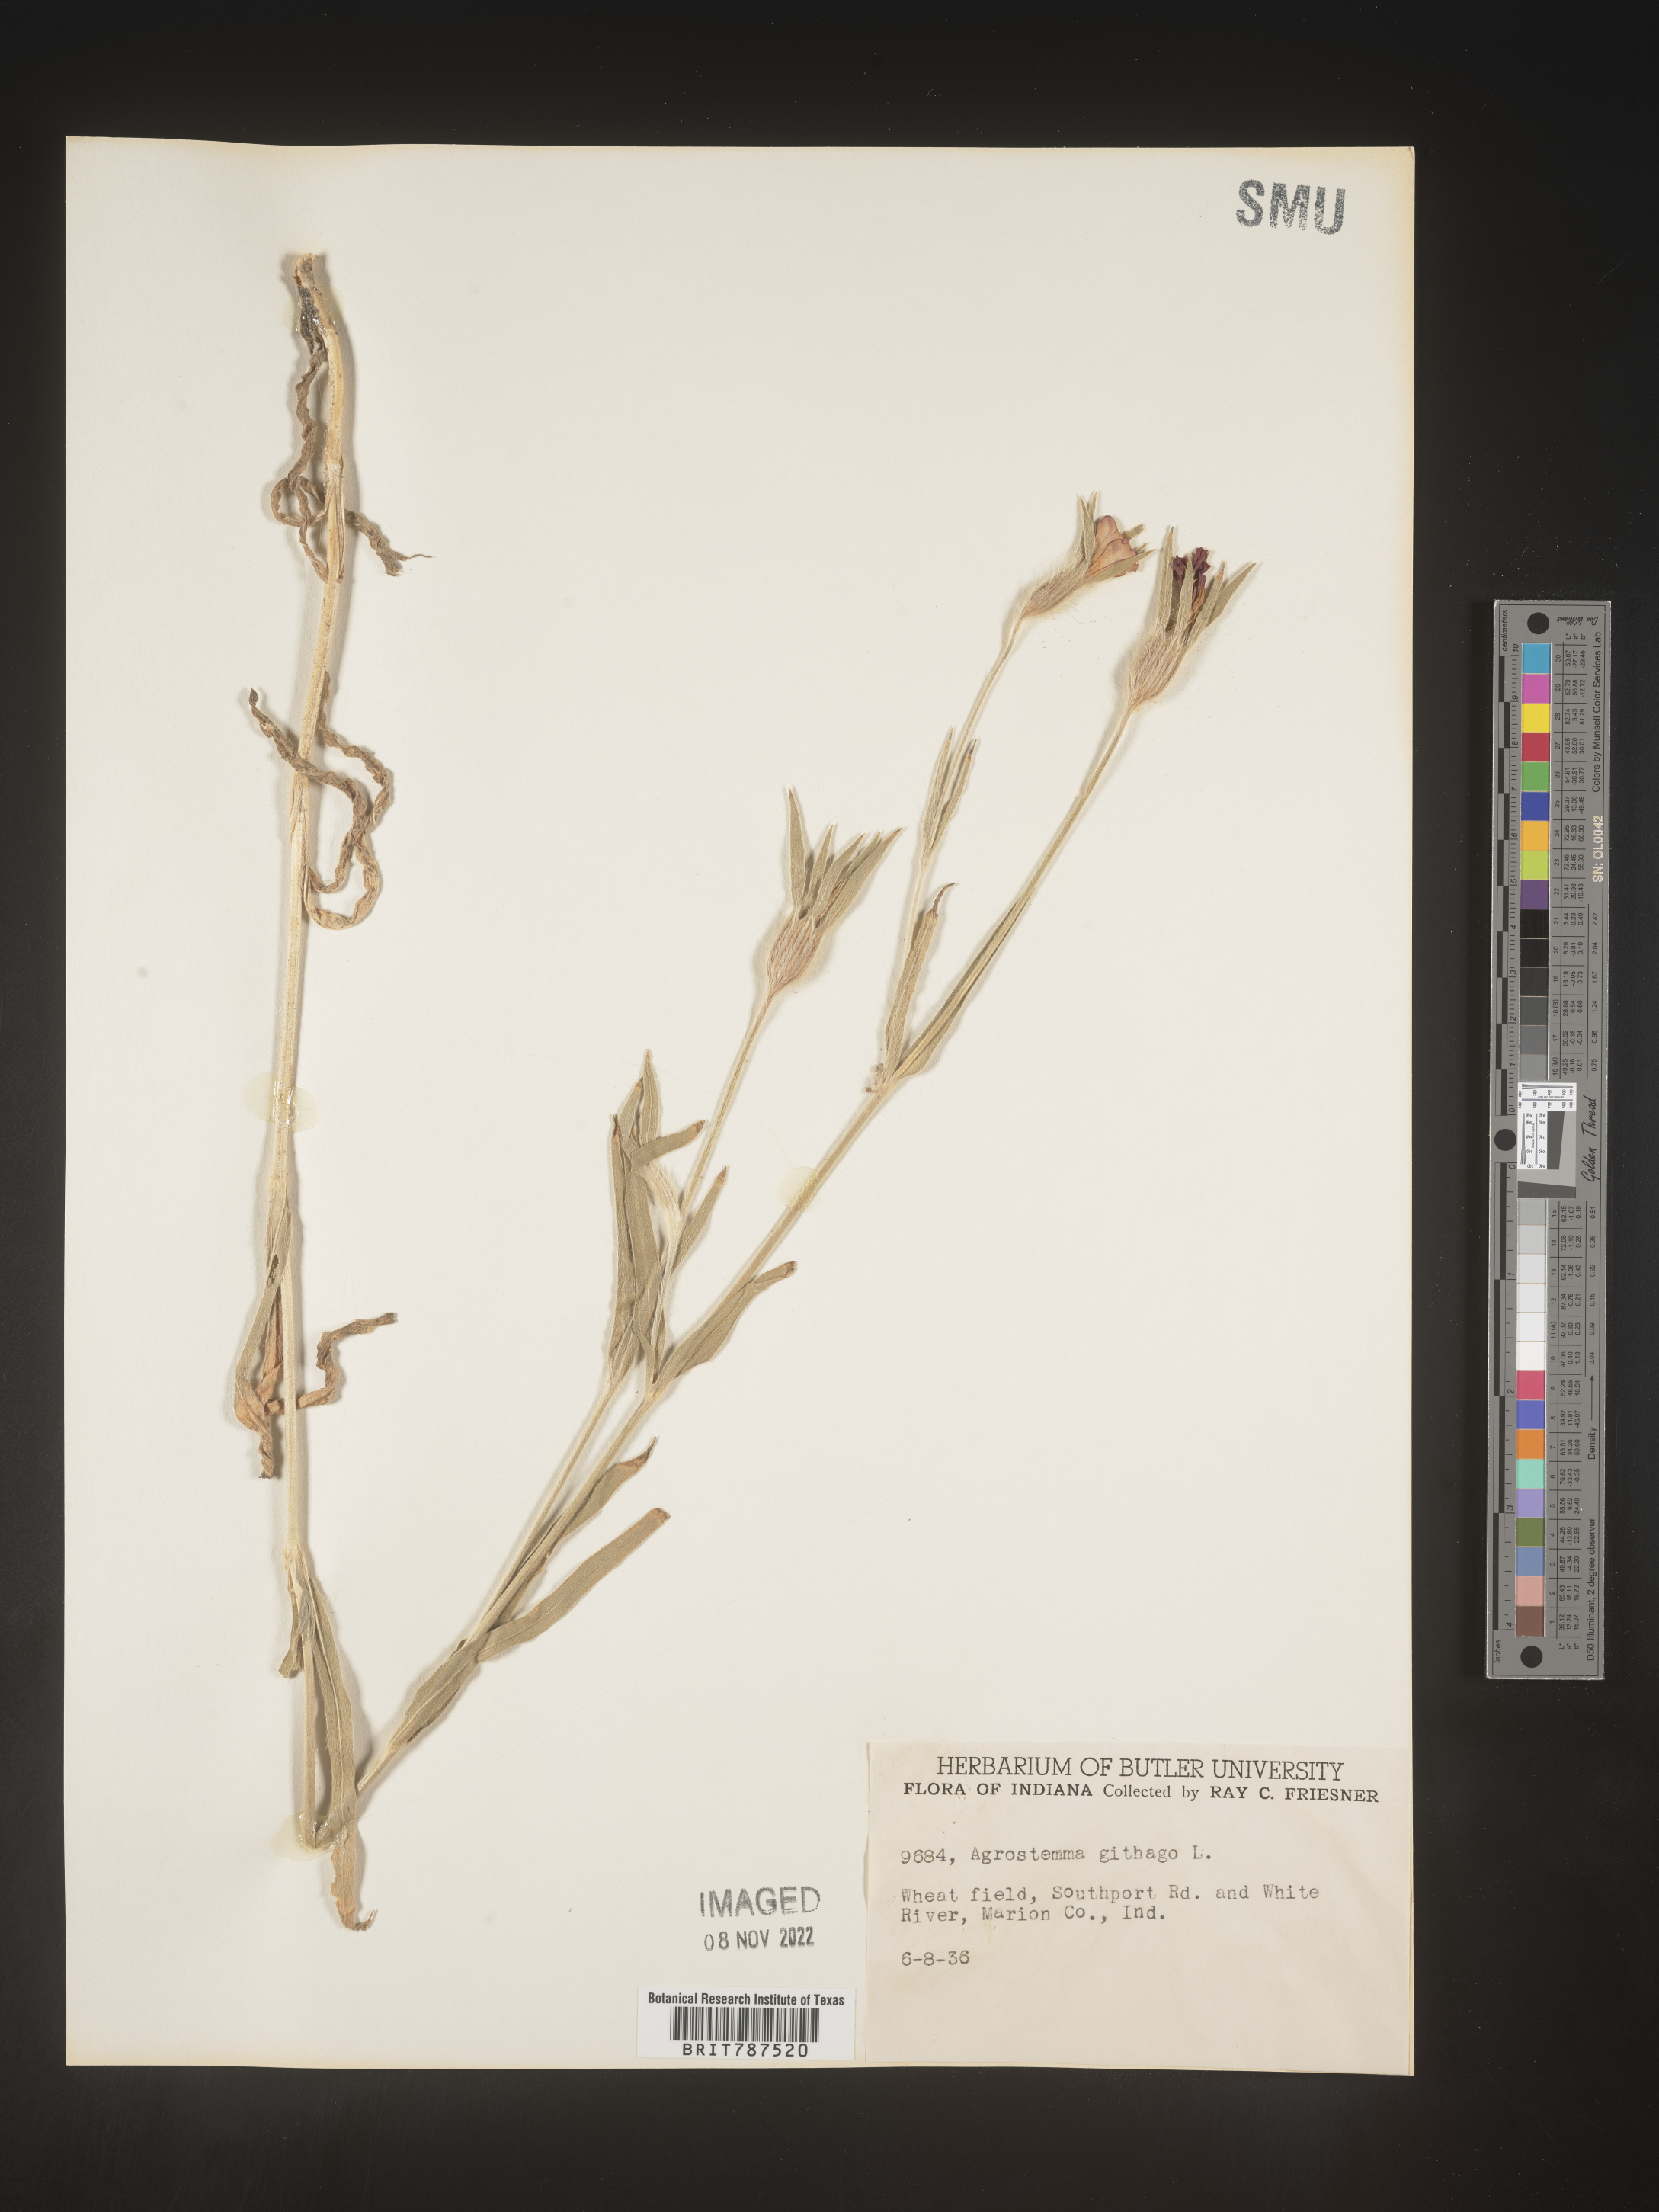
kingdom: Plantae
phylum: Tracheophyta
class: Magnoliopsida
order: Caryophyllales
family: Caryophyllaceae
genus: Agrostemma
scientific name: Agrostemma githago
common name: Common corncockle
